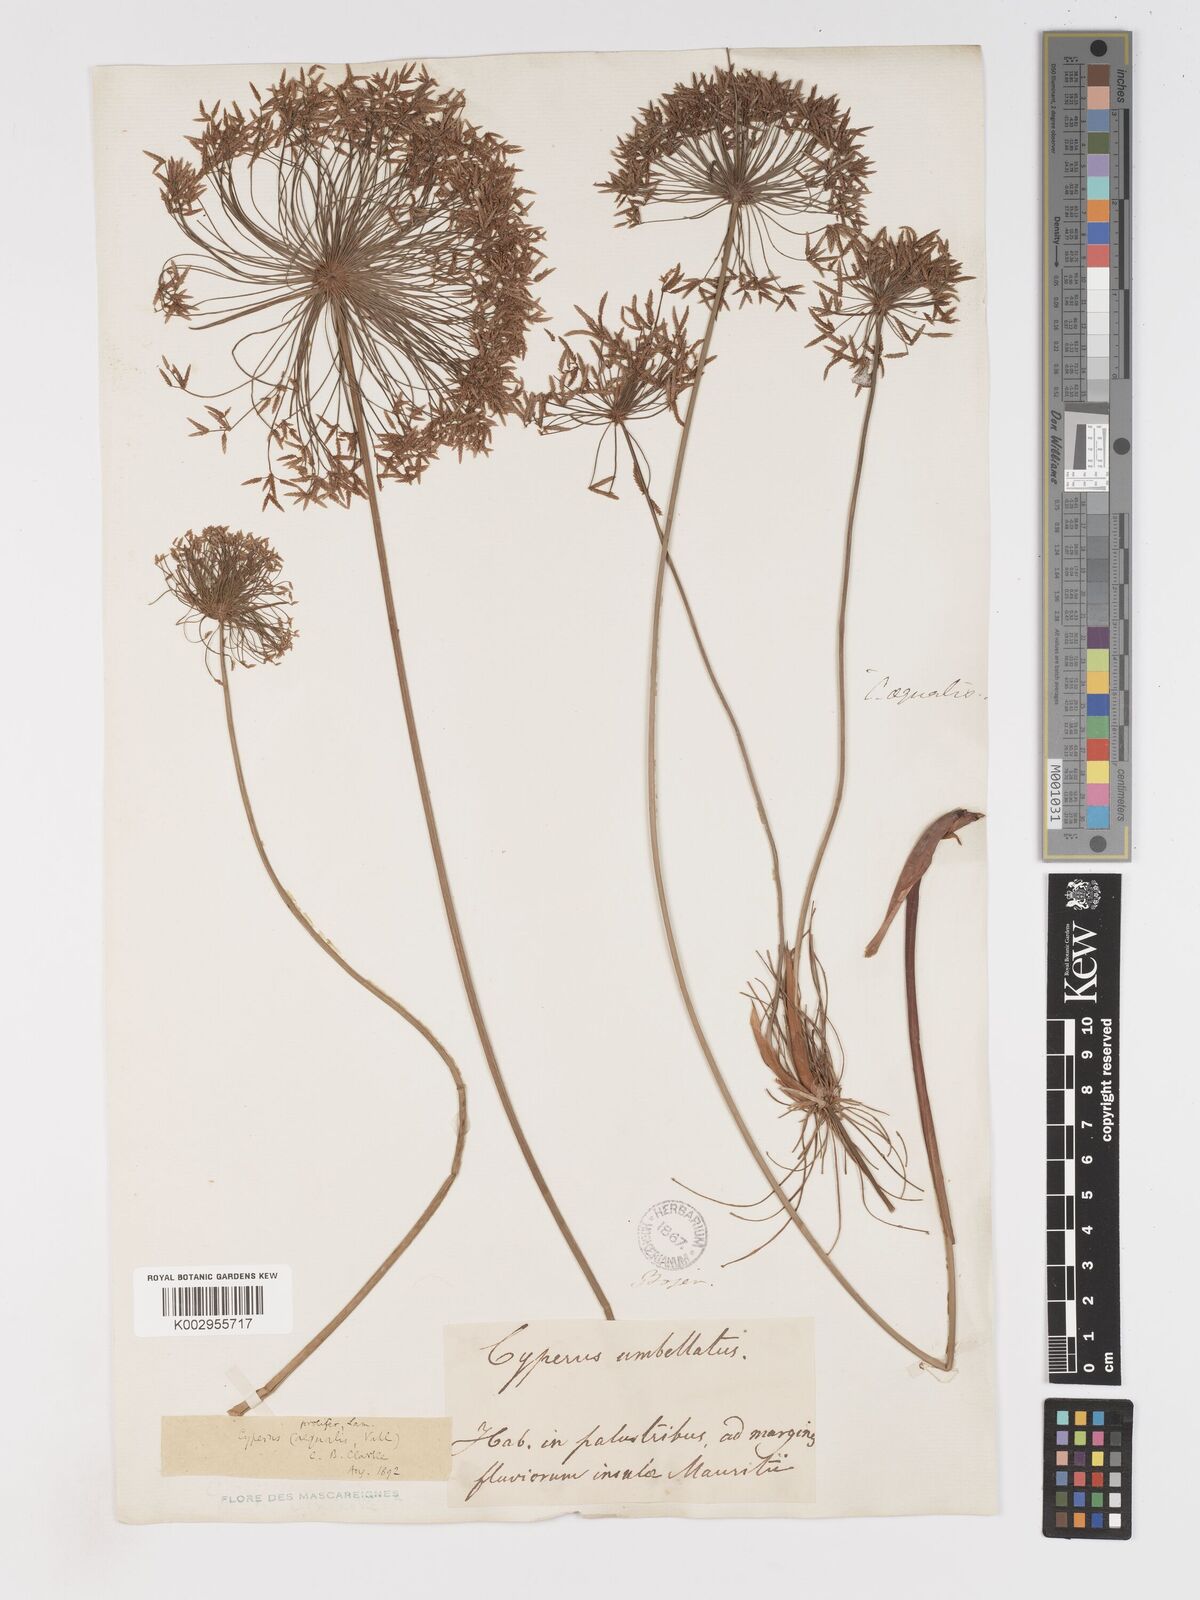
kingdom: Plantae
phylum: Tracheophyta
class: Liliopsida
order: Poales
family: Cyperaceae
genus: Cyperus
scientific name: Cyperus prolifer
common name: Miniature flatsedge
